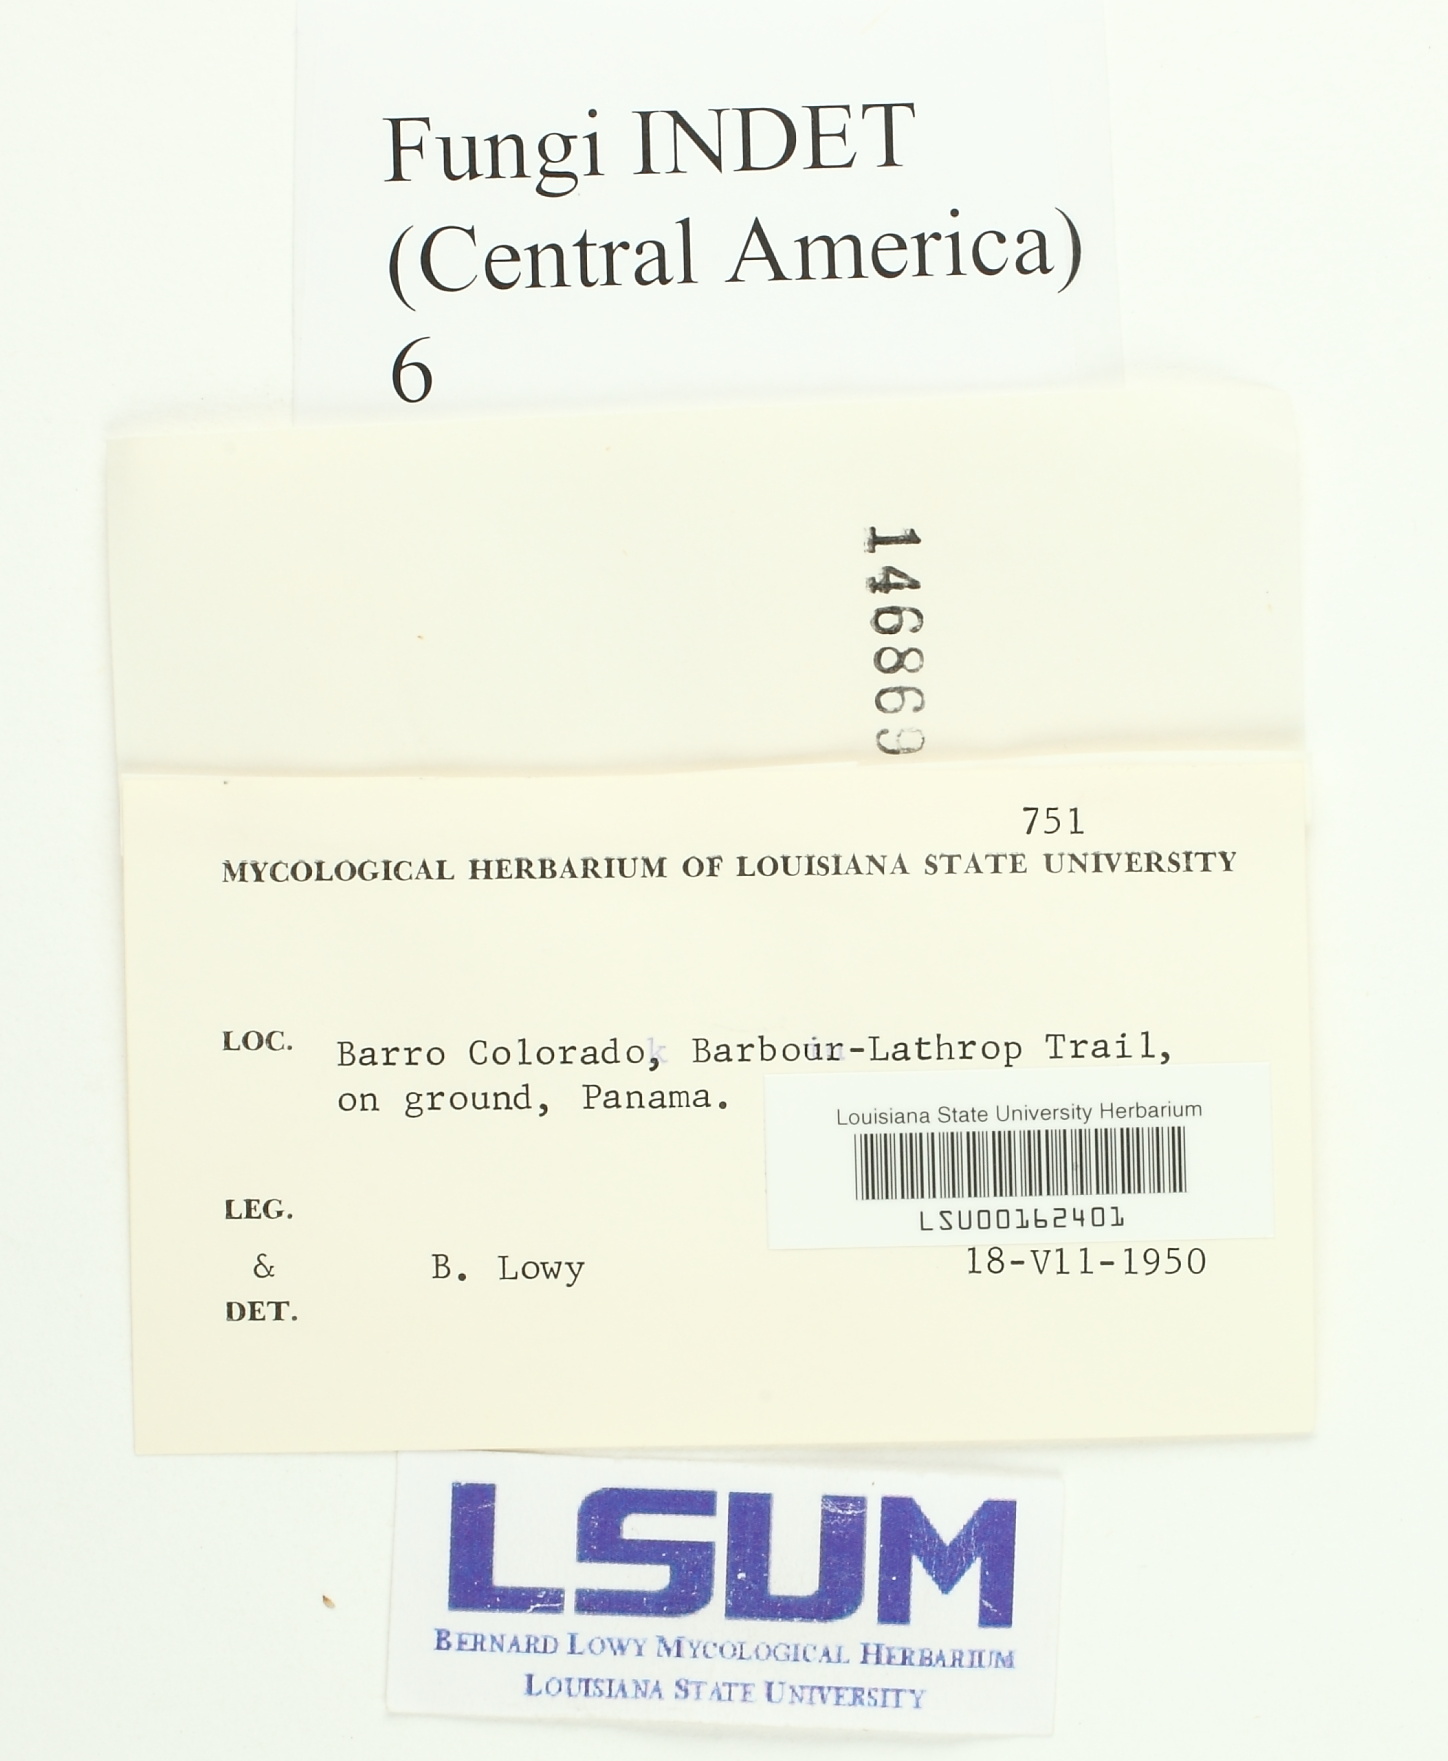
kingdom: Fungi
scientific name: Fungi
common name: Fungi
